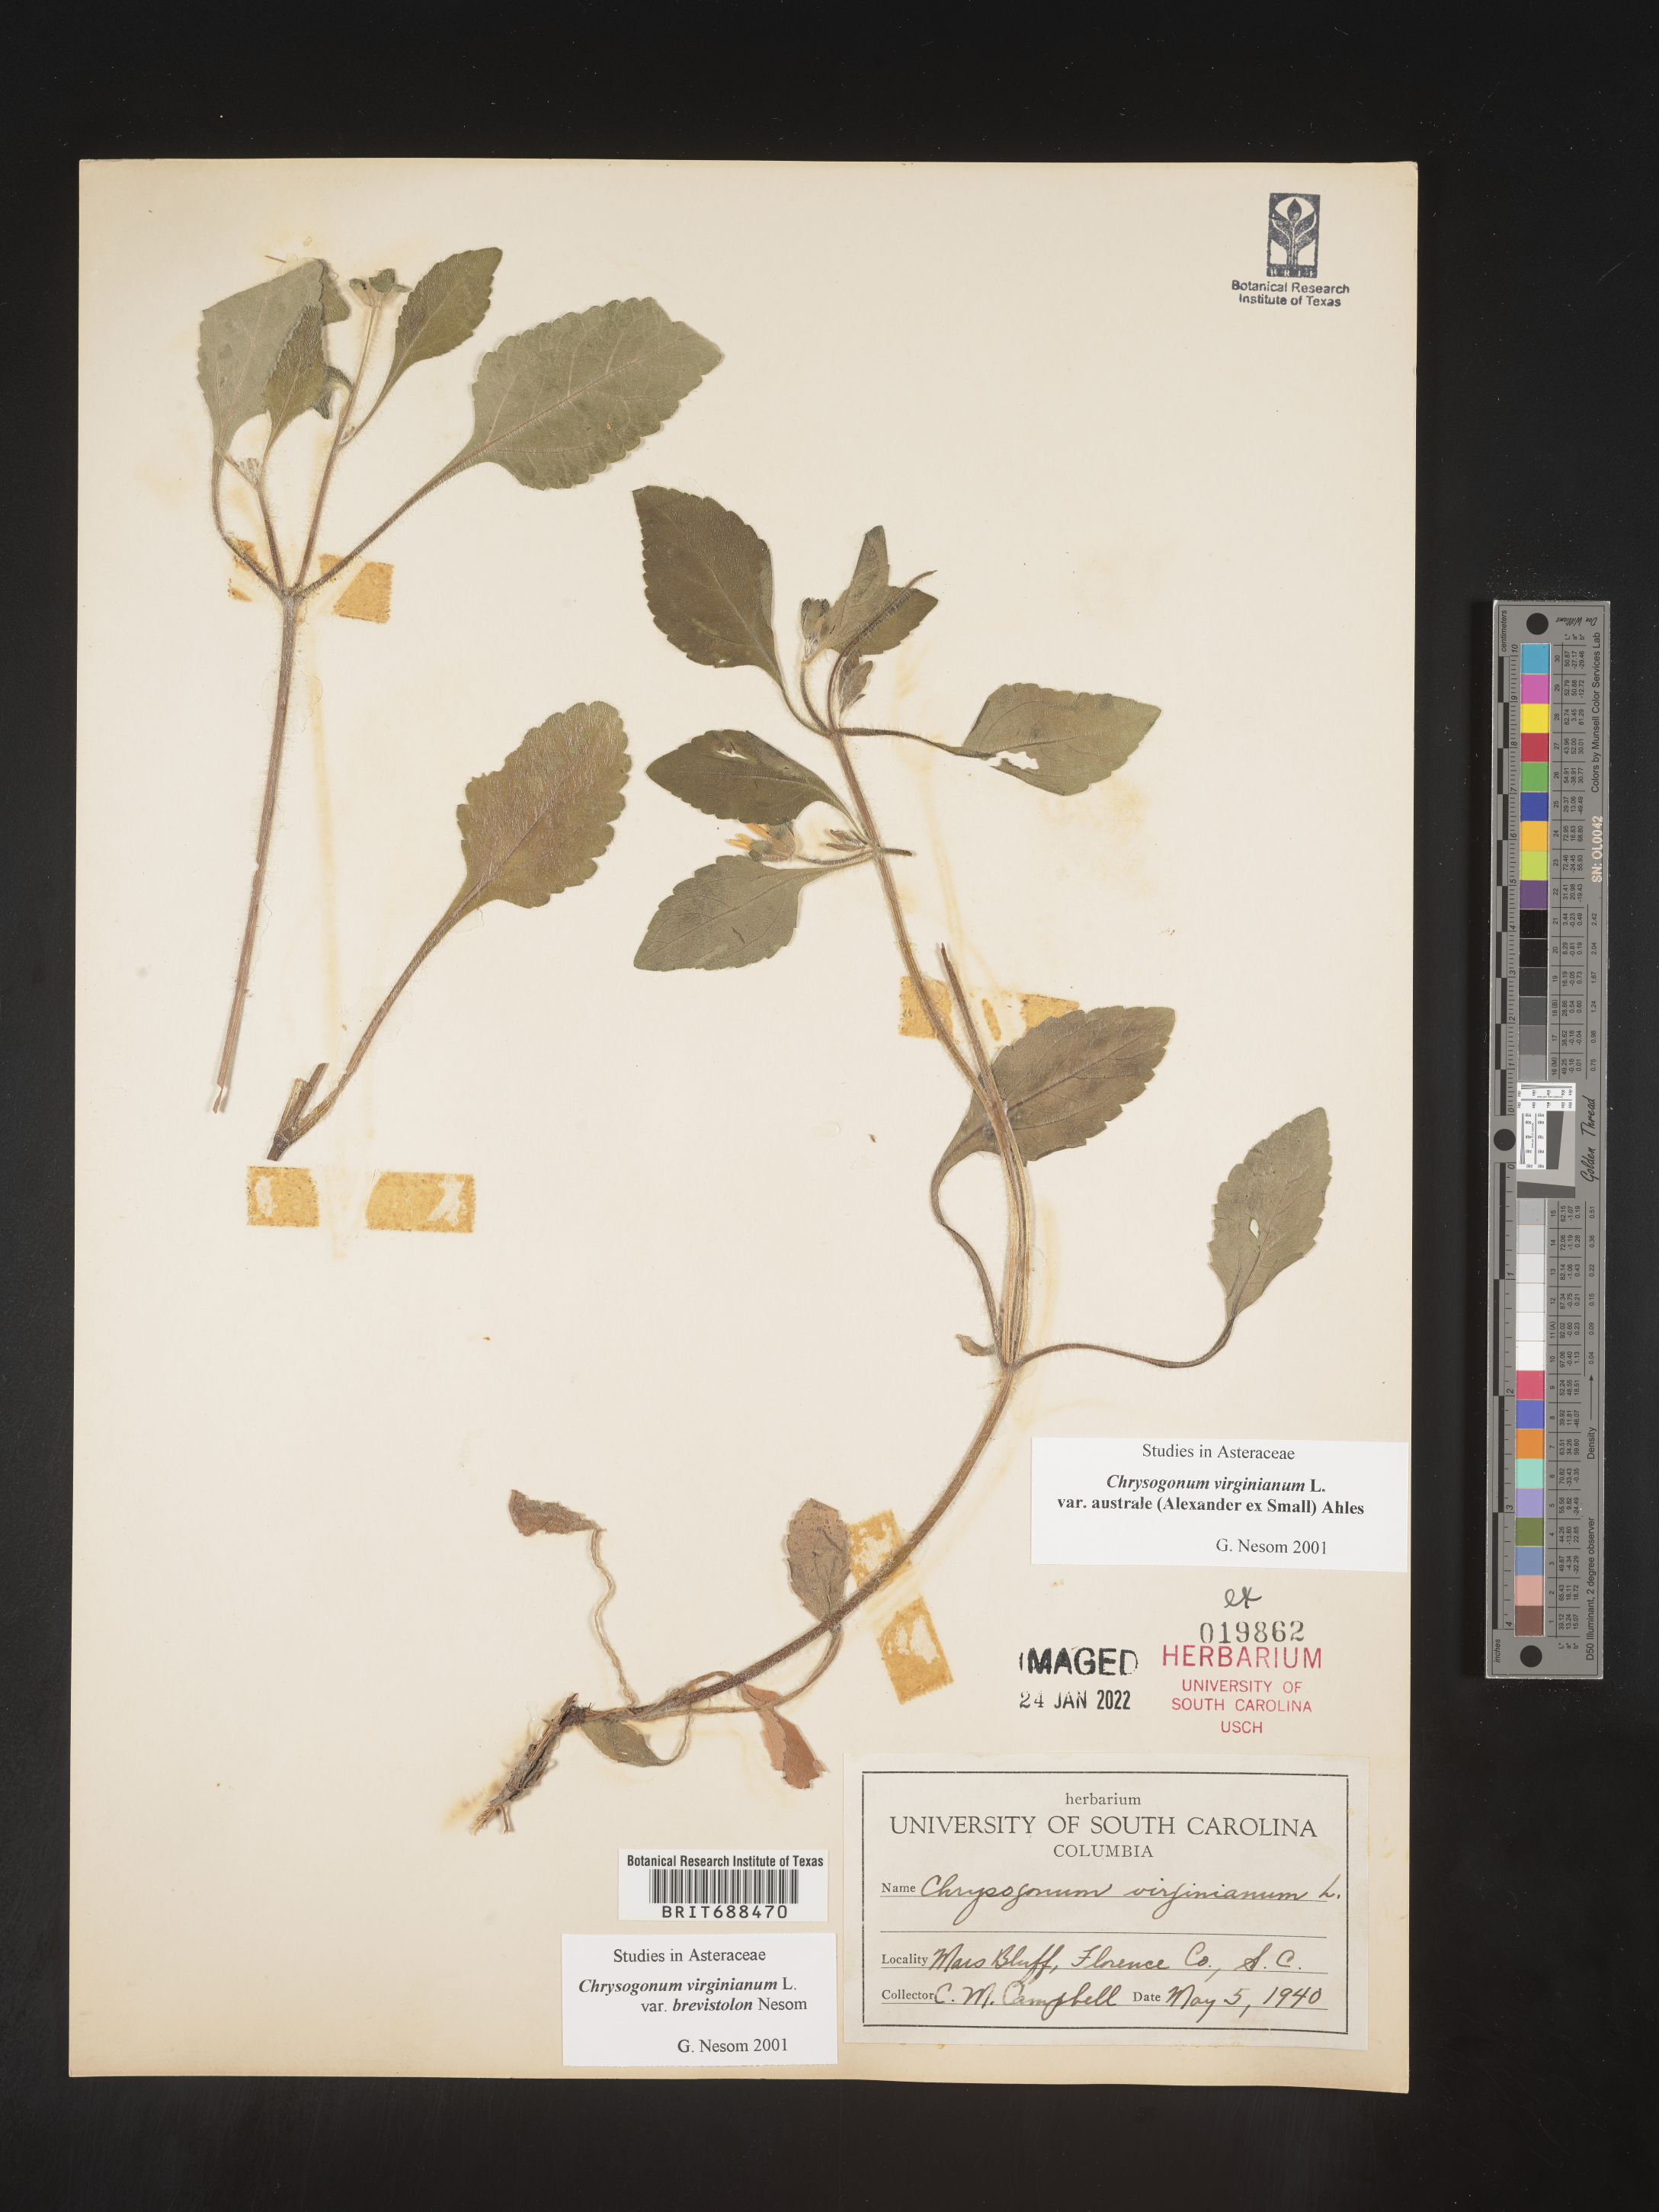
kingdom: Plantae
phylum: Tracheophyta
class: Magnoliopsida
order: Asterales
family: Asteraceae
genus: Chrysogonum
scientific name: Chrysogonum virginianum
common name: Golden-knee
